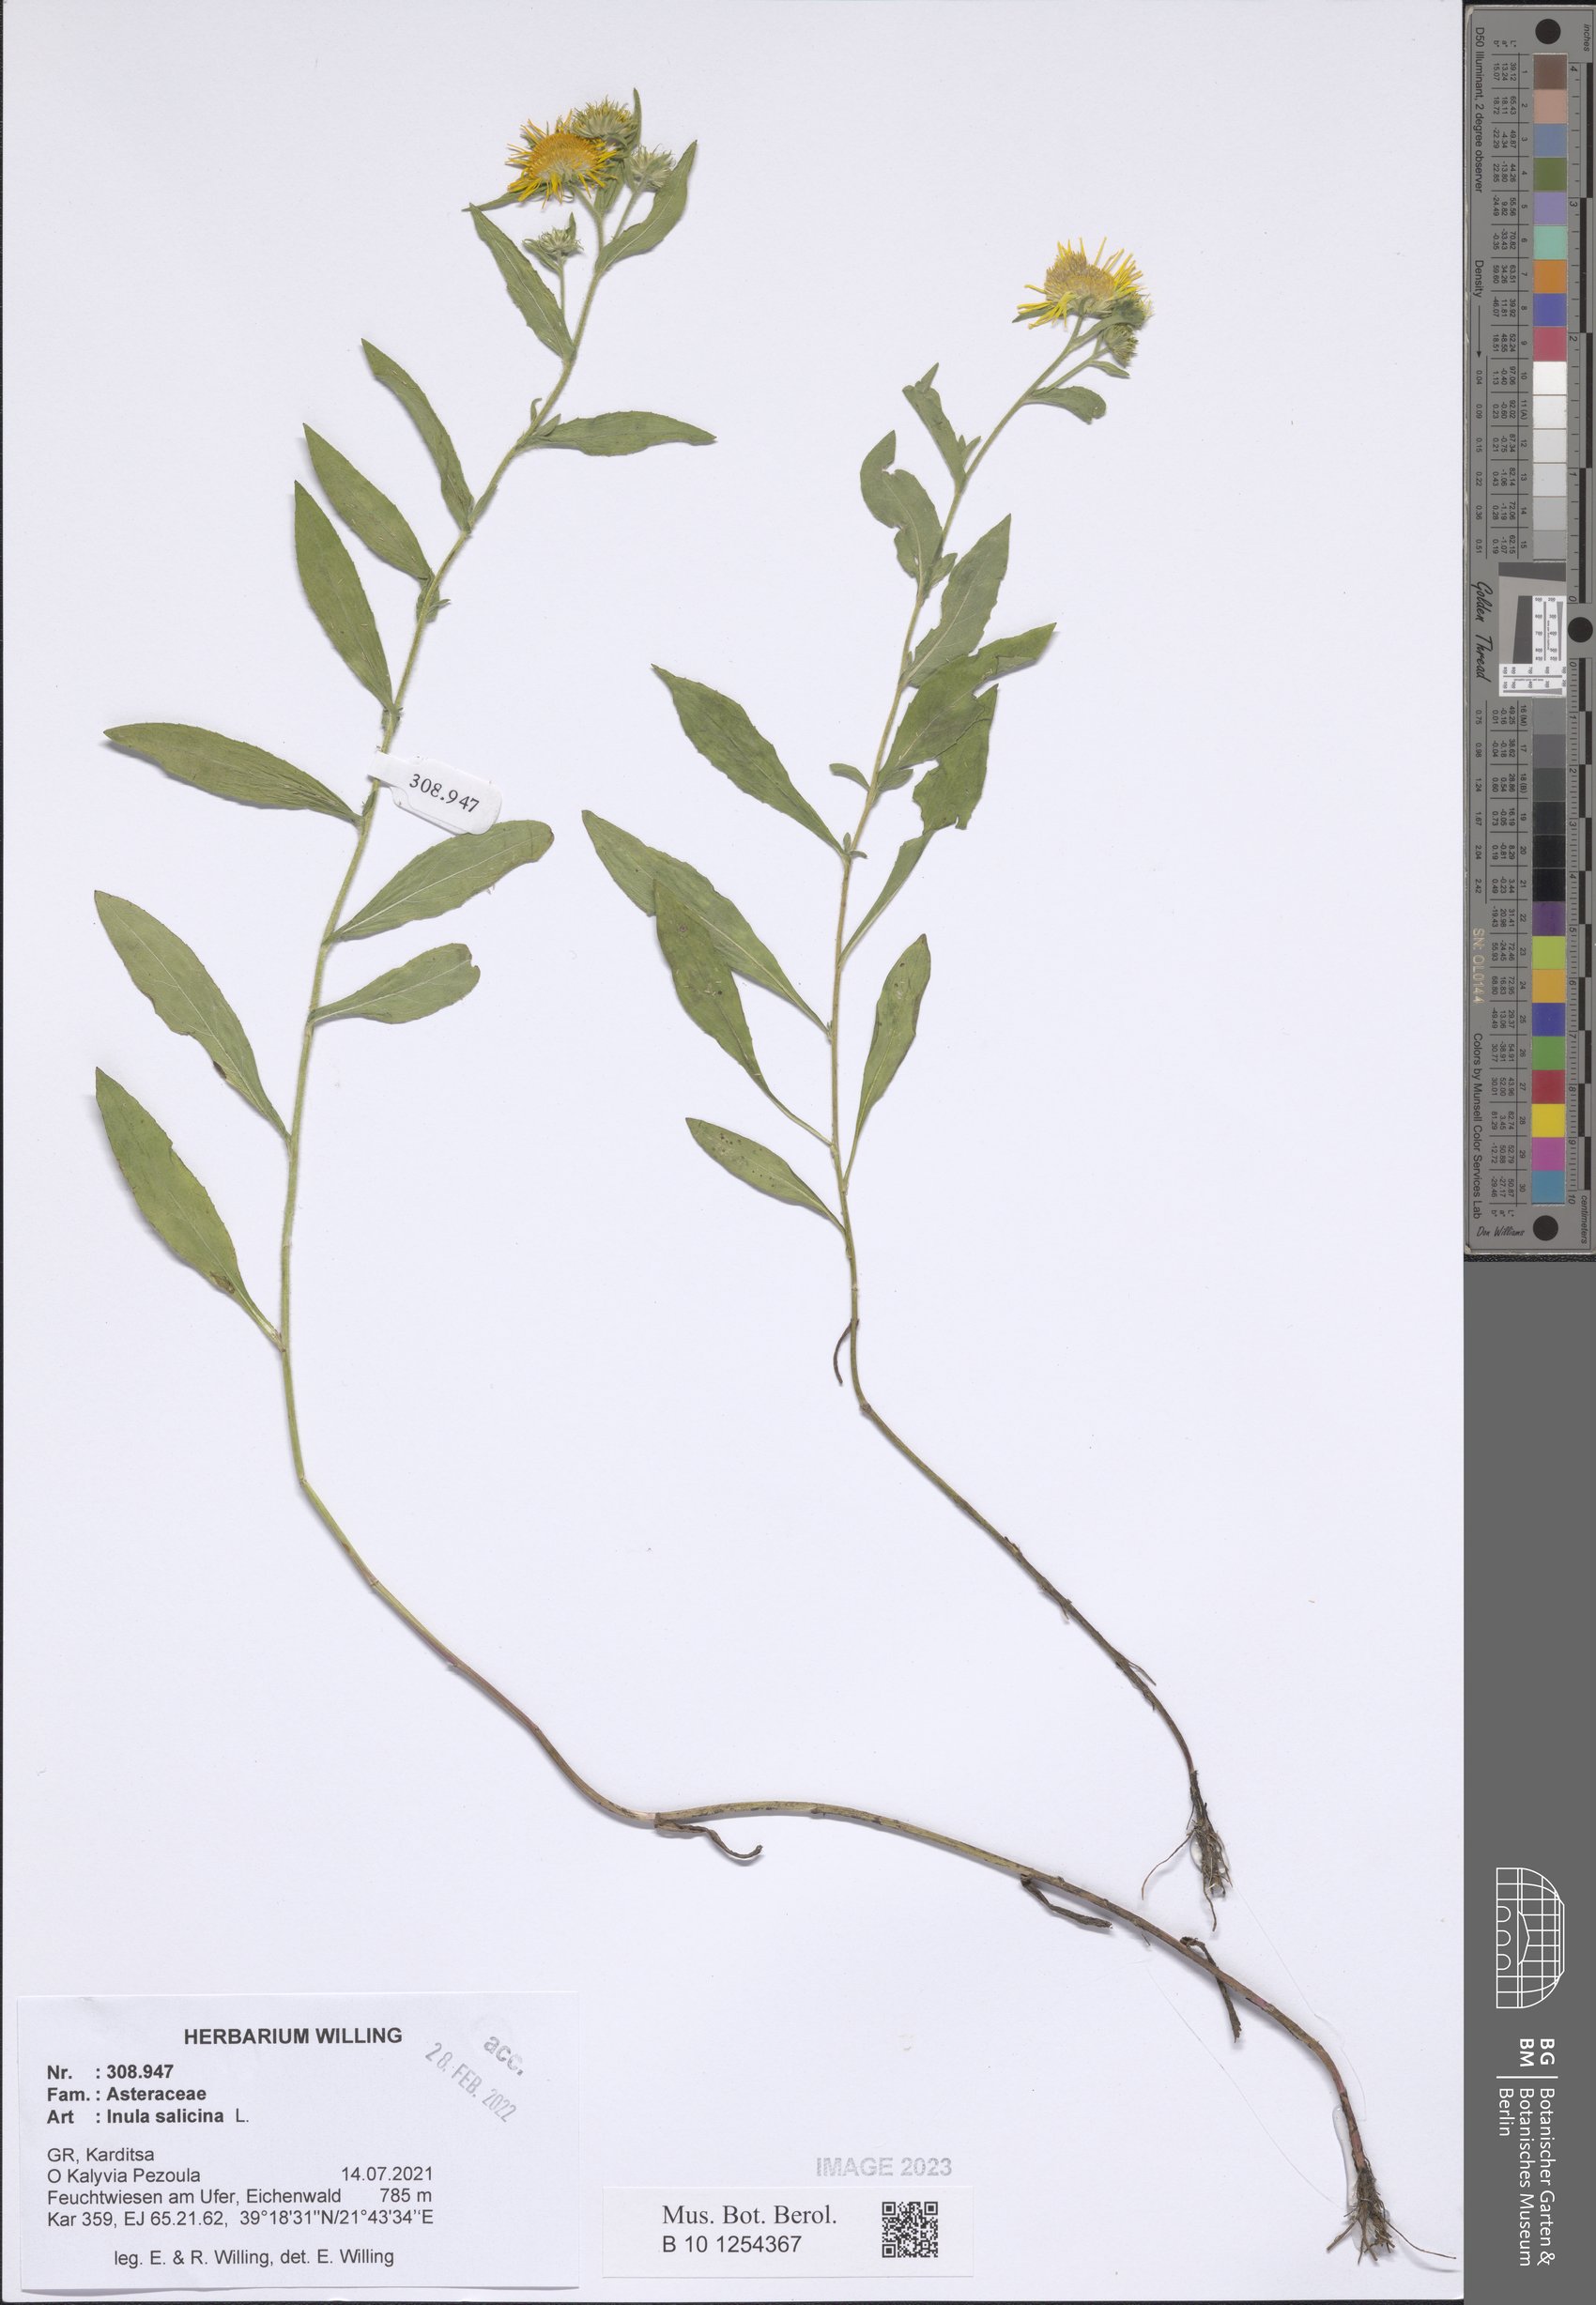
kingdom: Plantae
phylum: Tracheophyta
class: Magnoliopsida
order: Asterales
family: Asteraceae
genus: Pentanema
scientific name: Pentanema salicinum
